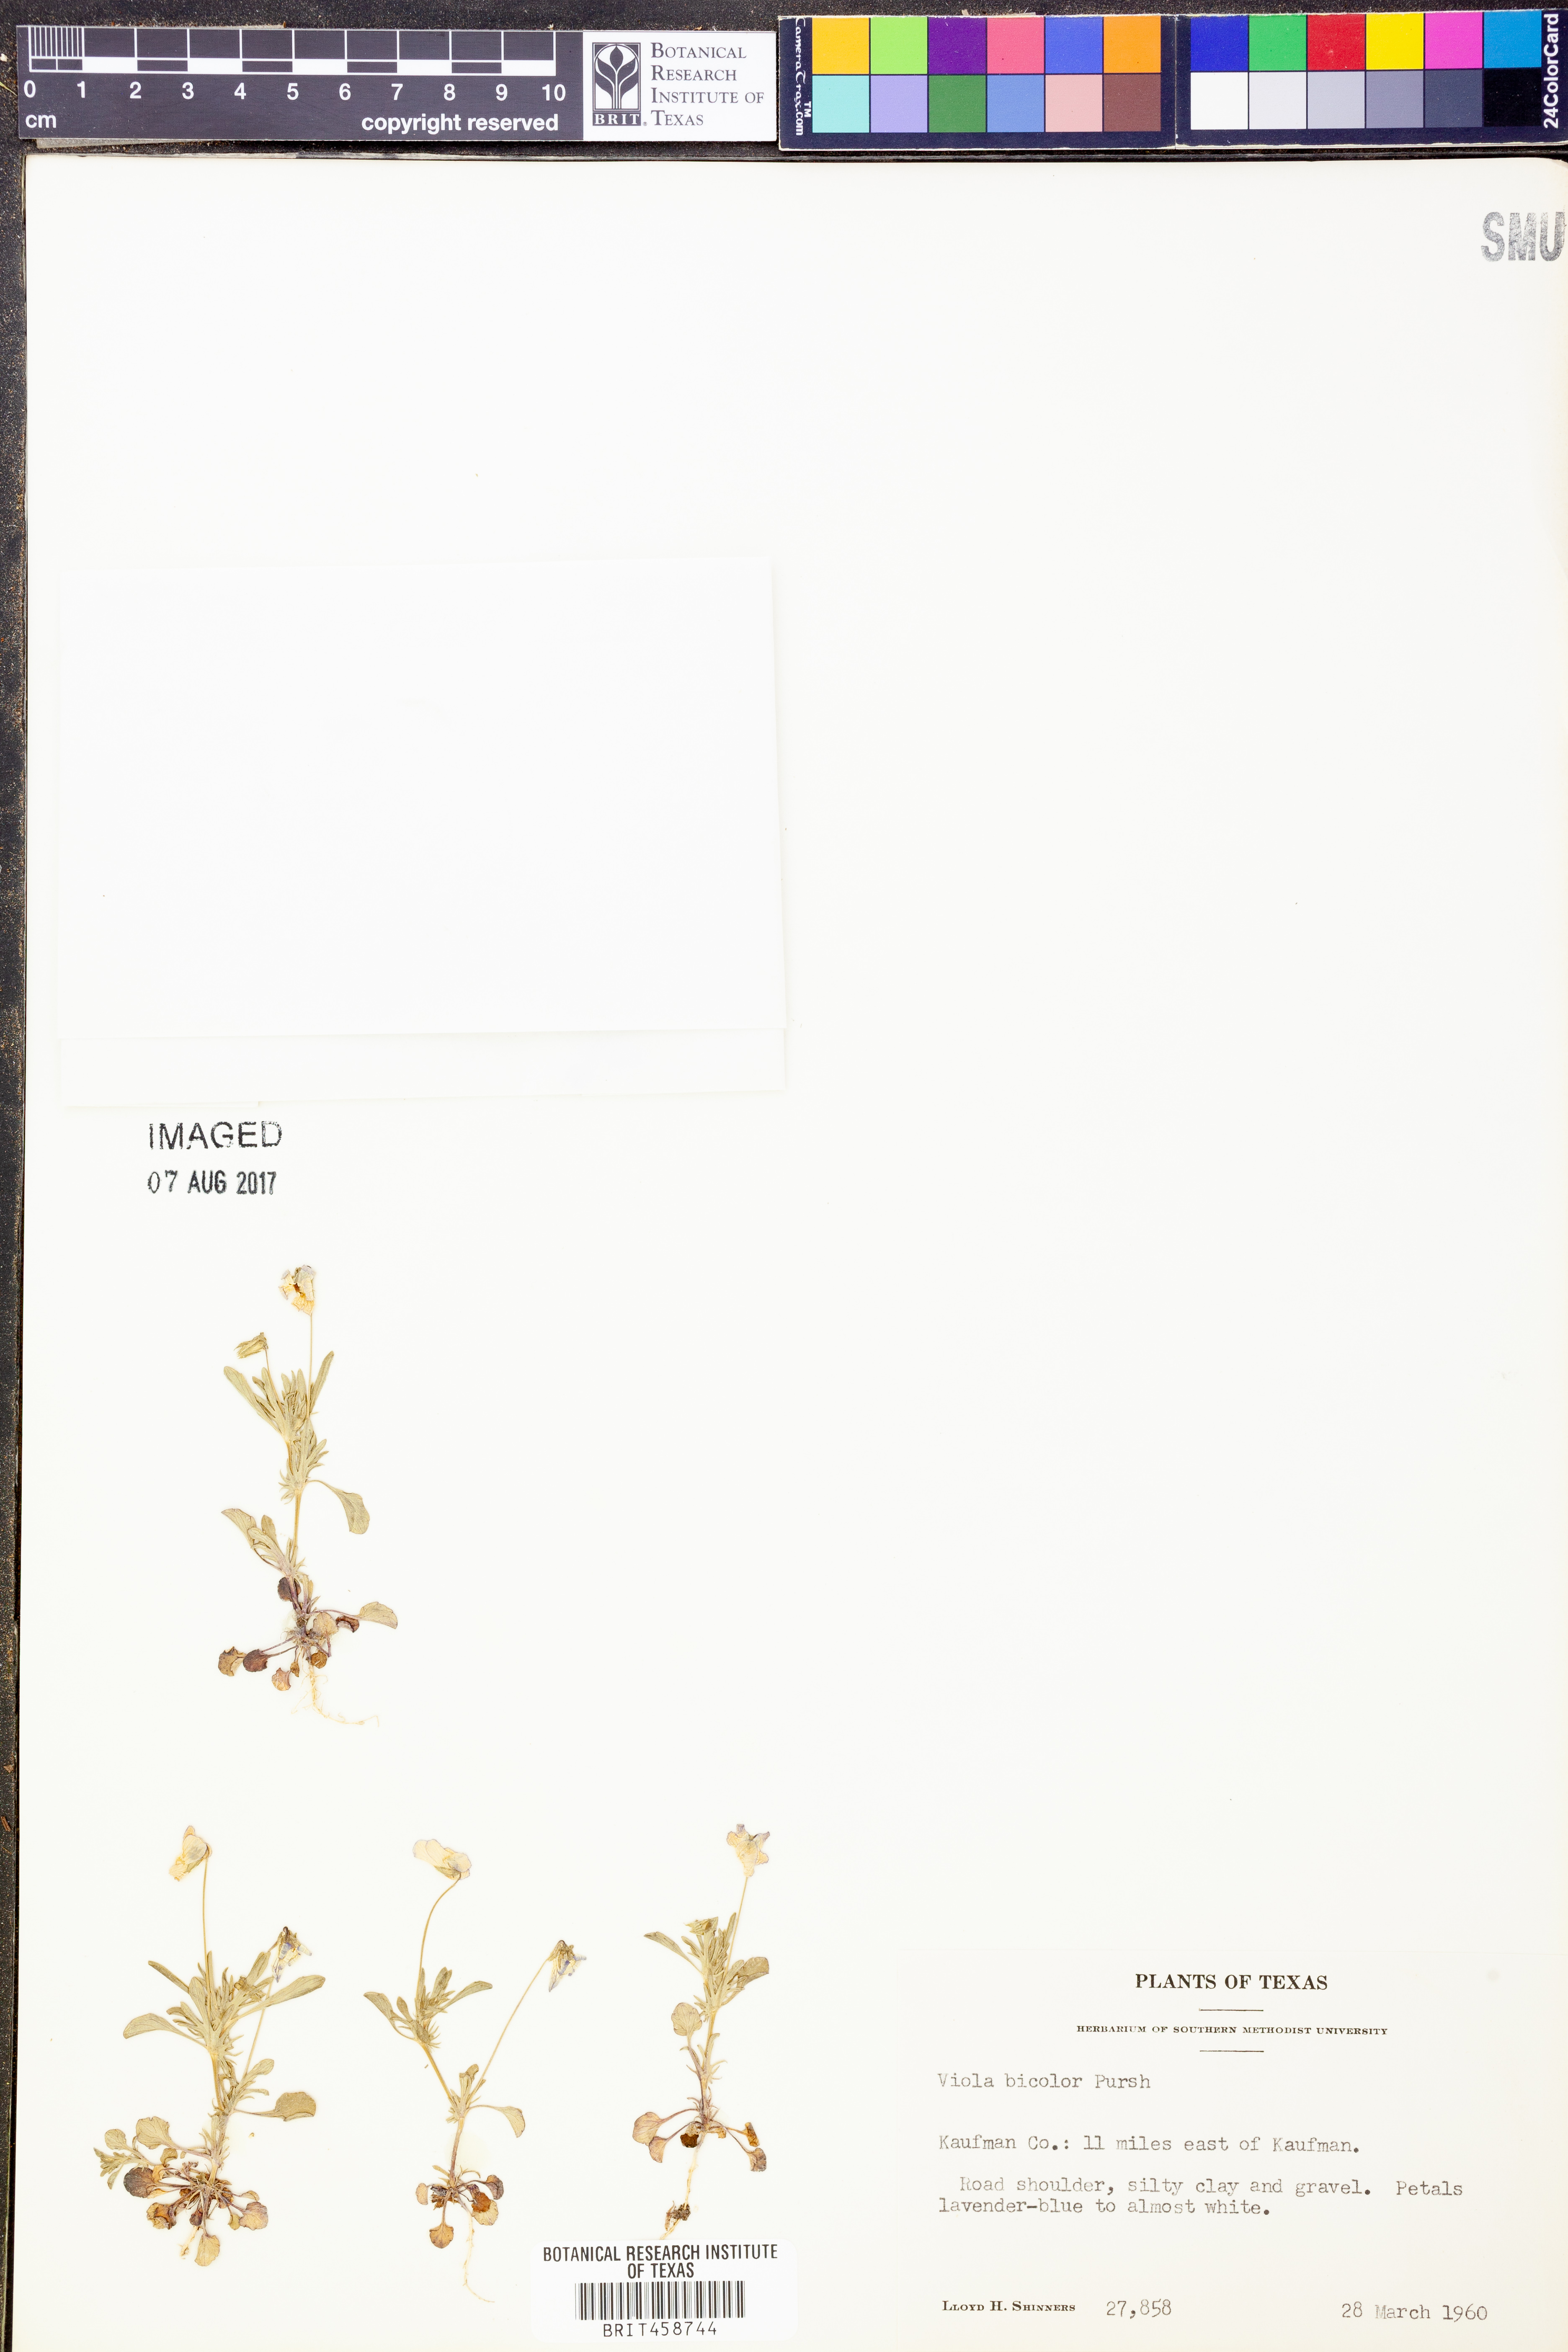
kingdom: Plantae
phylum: Tracheophyta
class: Magnoliopsida
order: Malpighiales
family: Violaceae
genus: Viola
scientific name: Viola rafinesquei
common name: American field pansy
